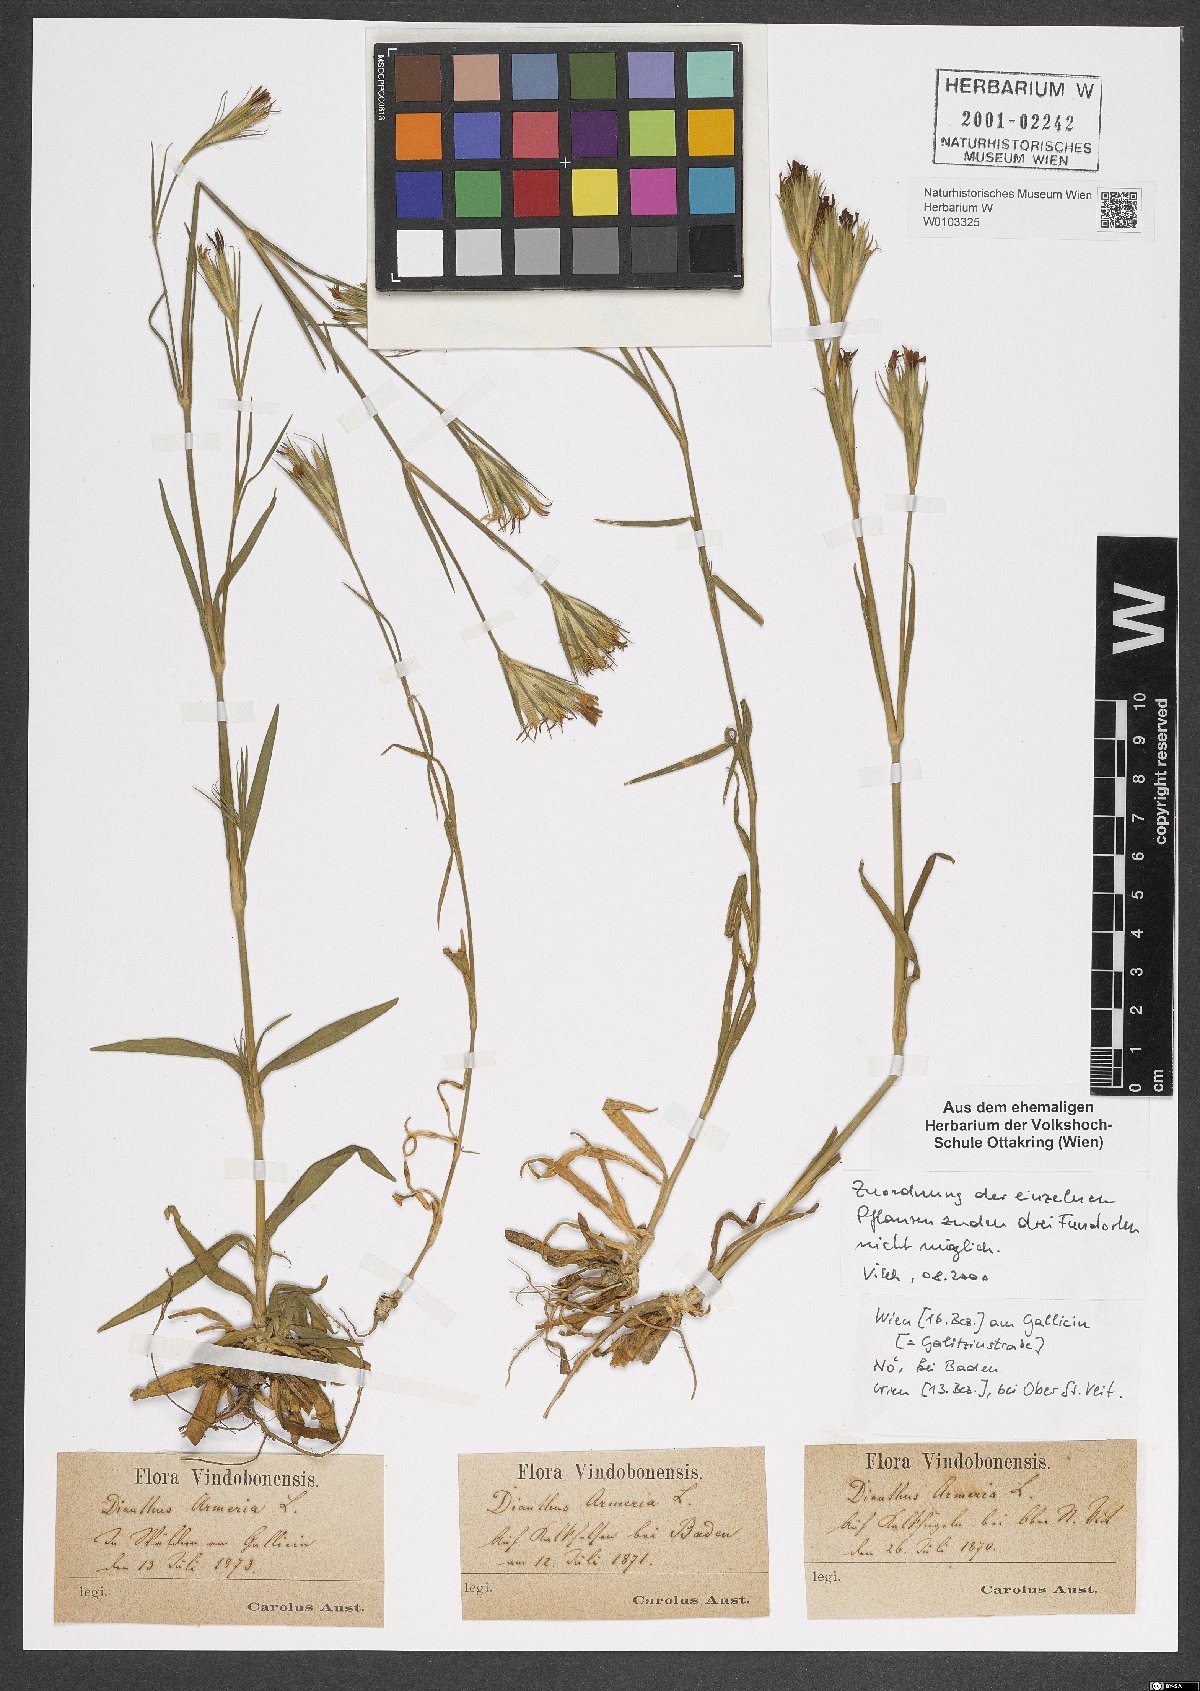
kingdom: Plantae
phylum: Tracheophyta
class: Magnoliopsida
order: Caryophyllales
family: Caryophyllaceae
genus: Dianthus
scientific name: Dianthus armeria
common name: Deptford pink
